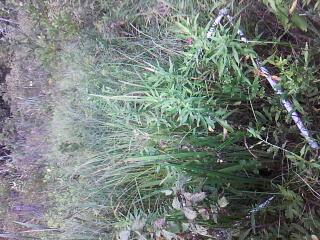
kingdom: Plantae
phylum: Tracheophyta
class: Magnoliopsida
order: Asterales
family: Asteraceae
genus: Solidago
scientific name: Solidago canadensis
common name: Canada goldenrod
